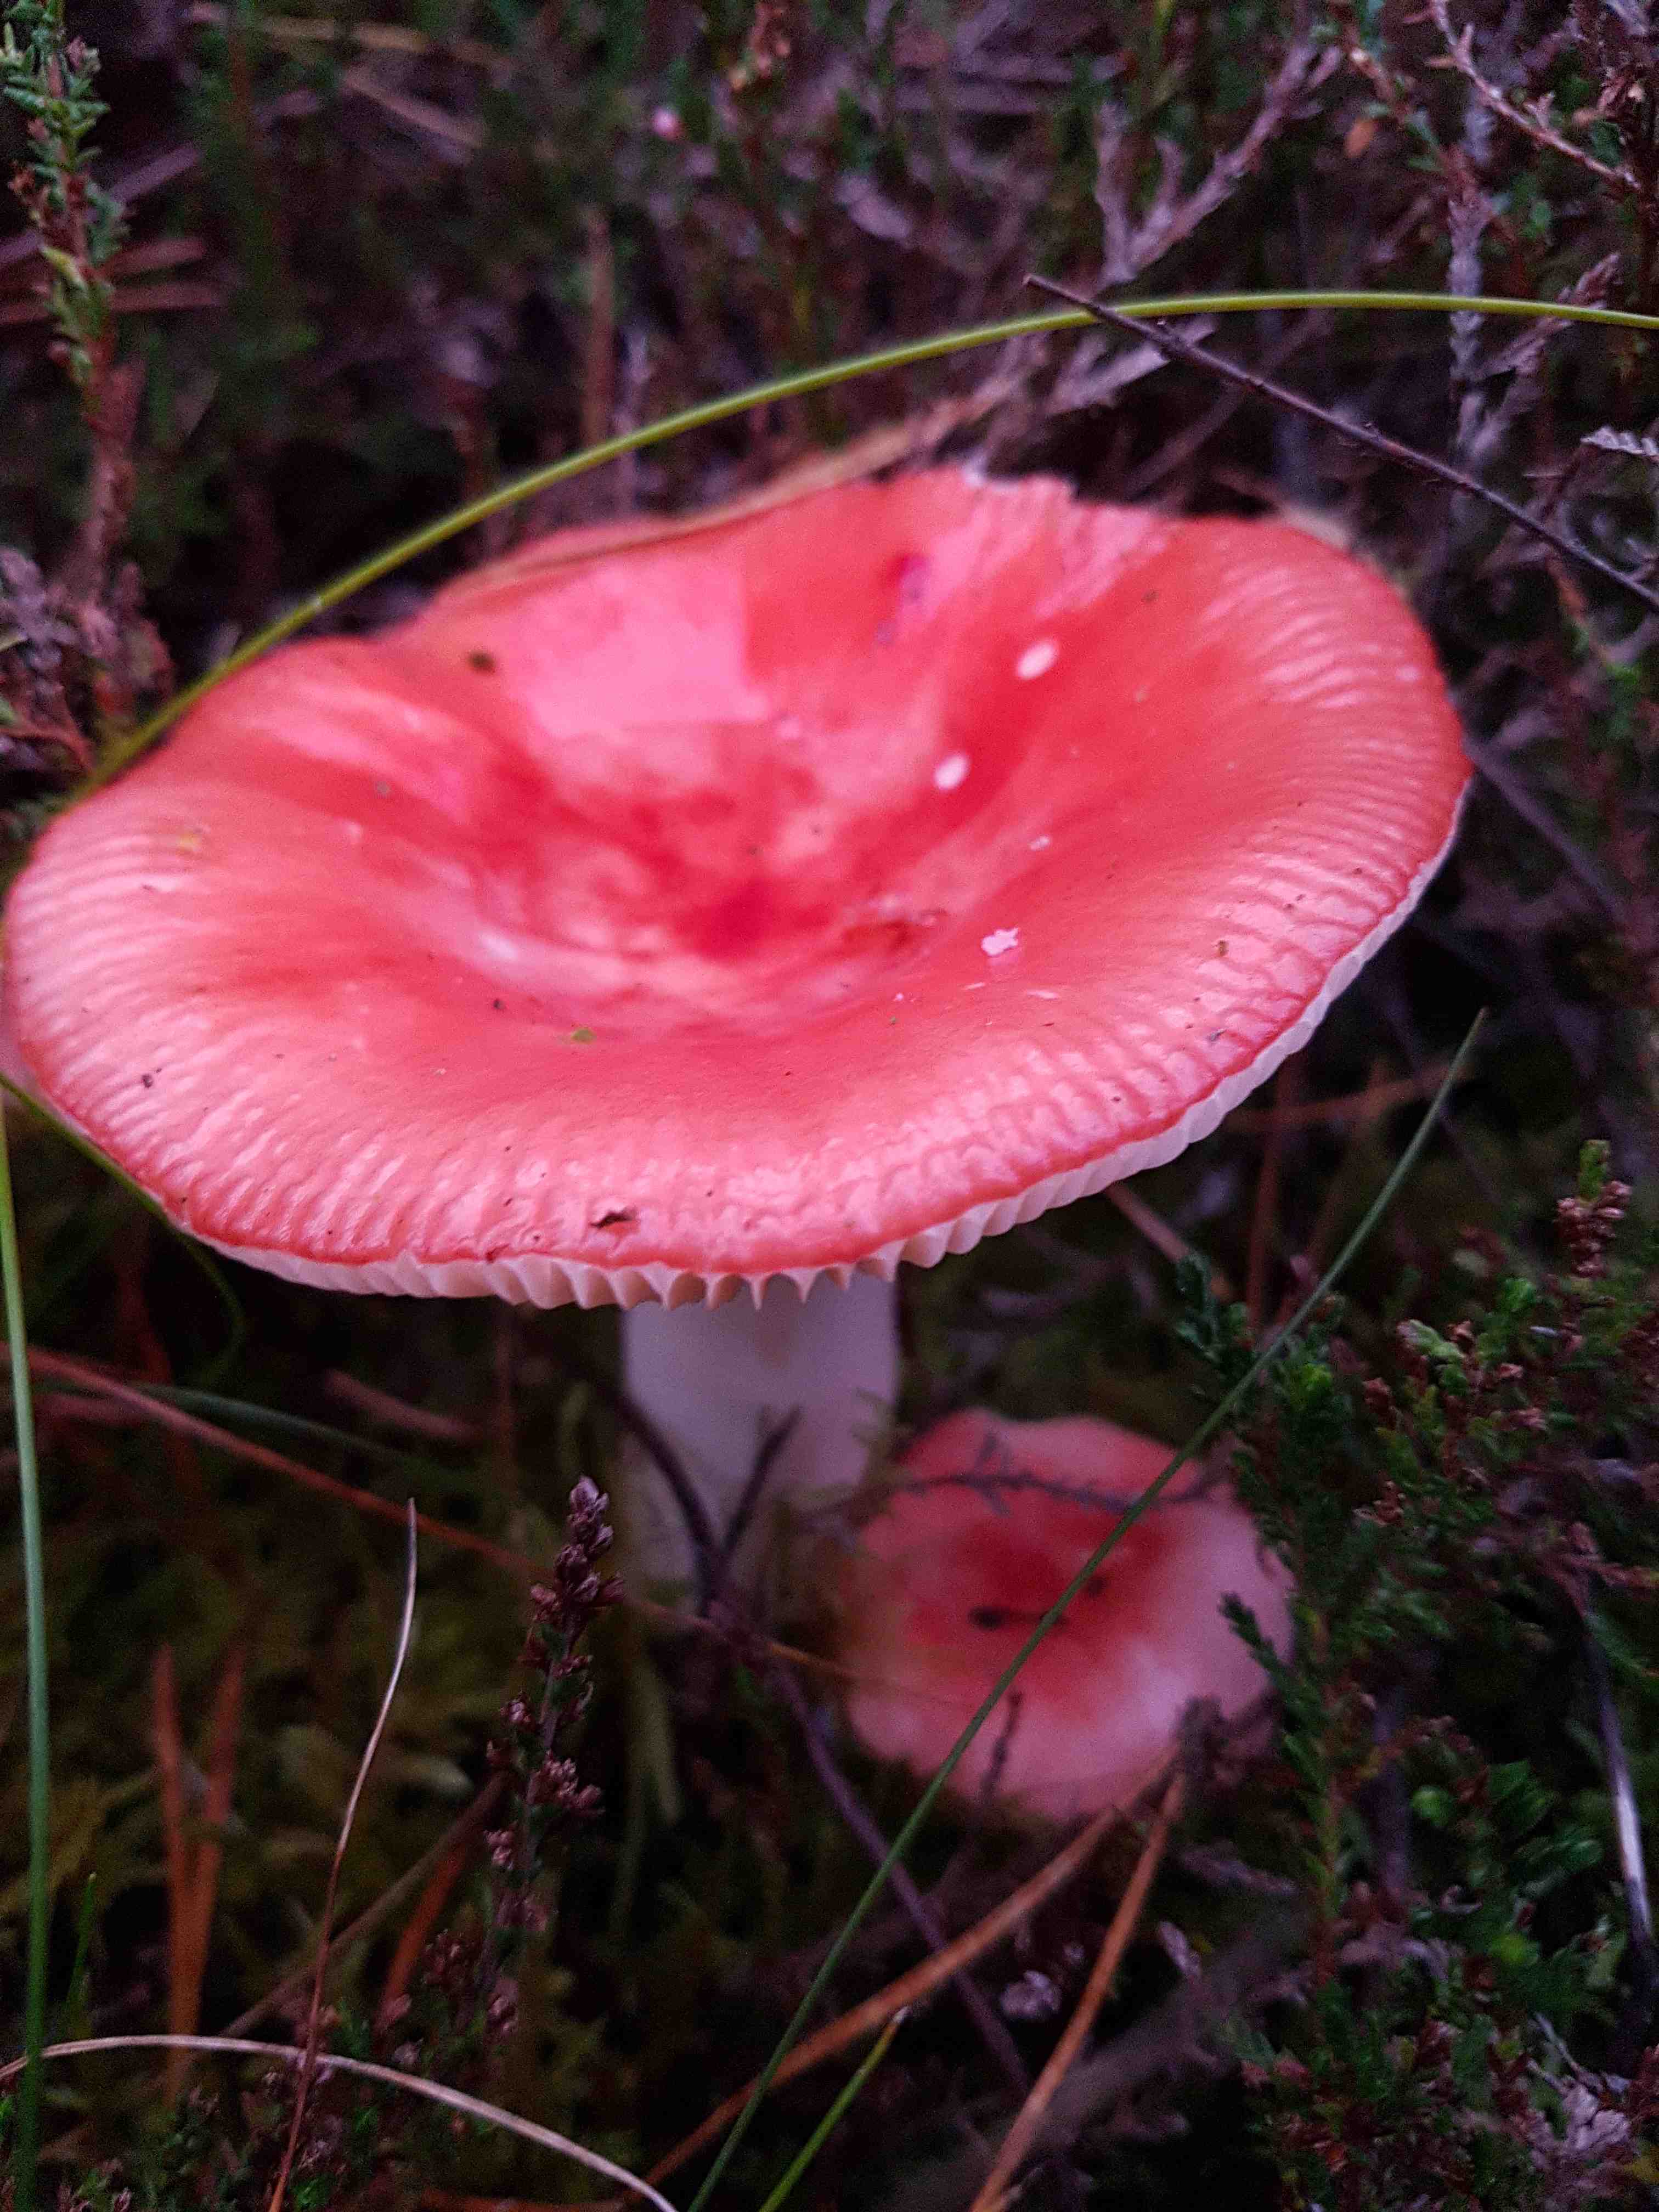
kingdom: Fungi
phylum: Basidiomycota
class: Agaricomycetes
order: Russulales
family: Russulaceae
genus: Russula
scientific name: Russula
